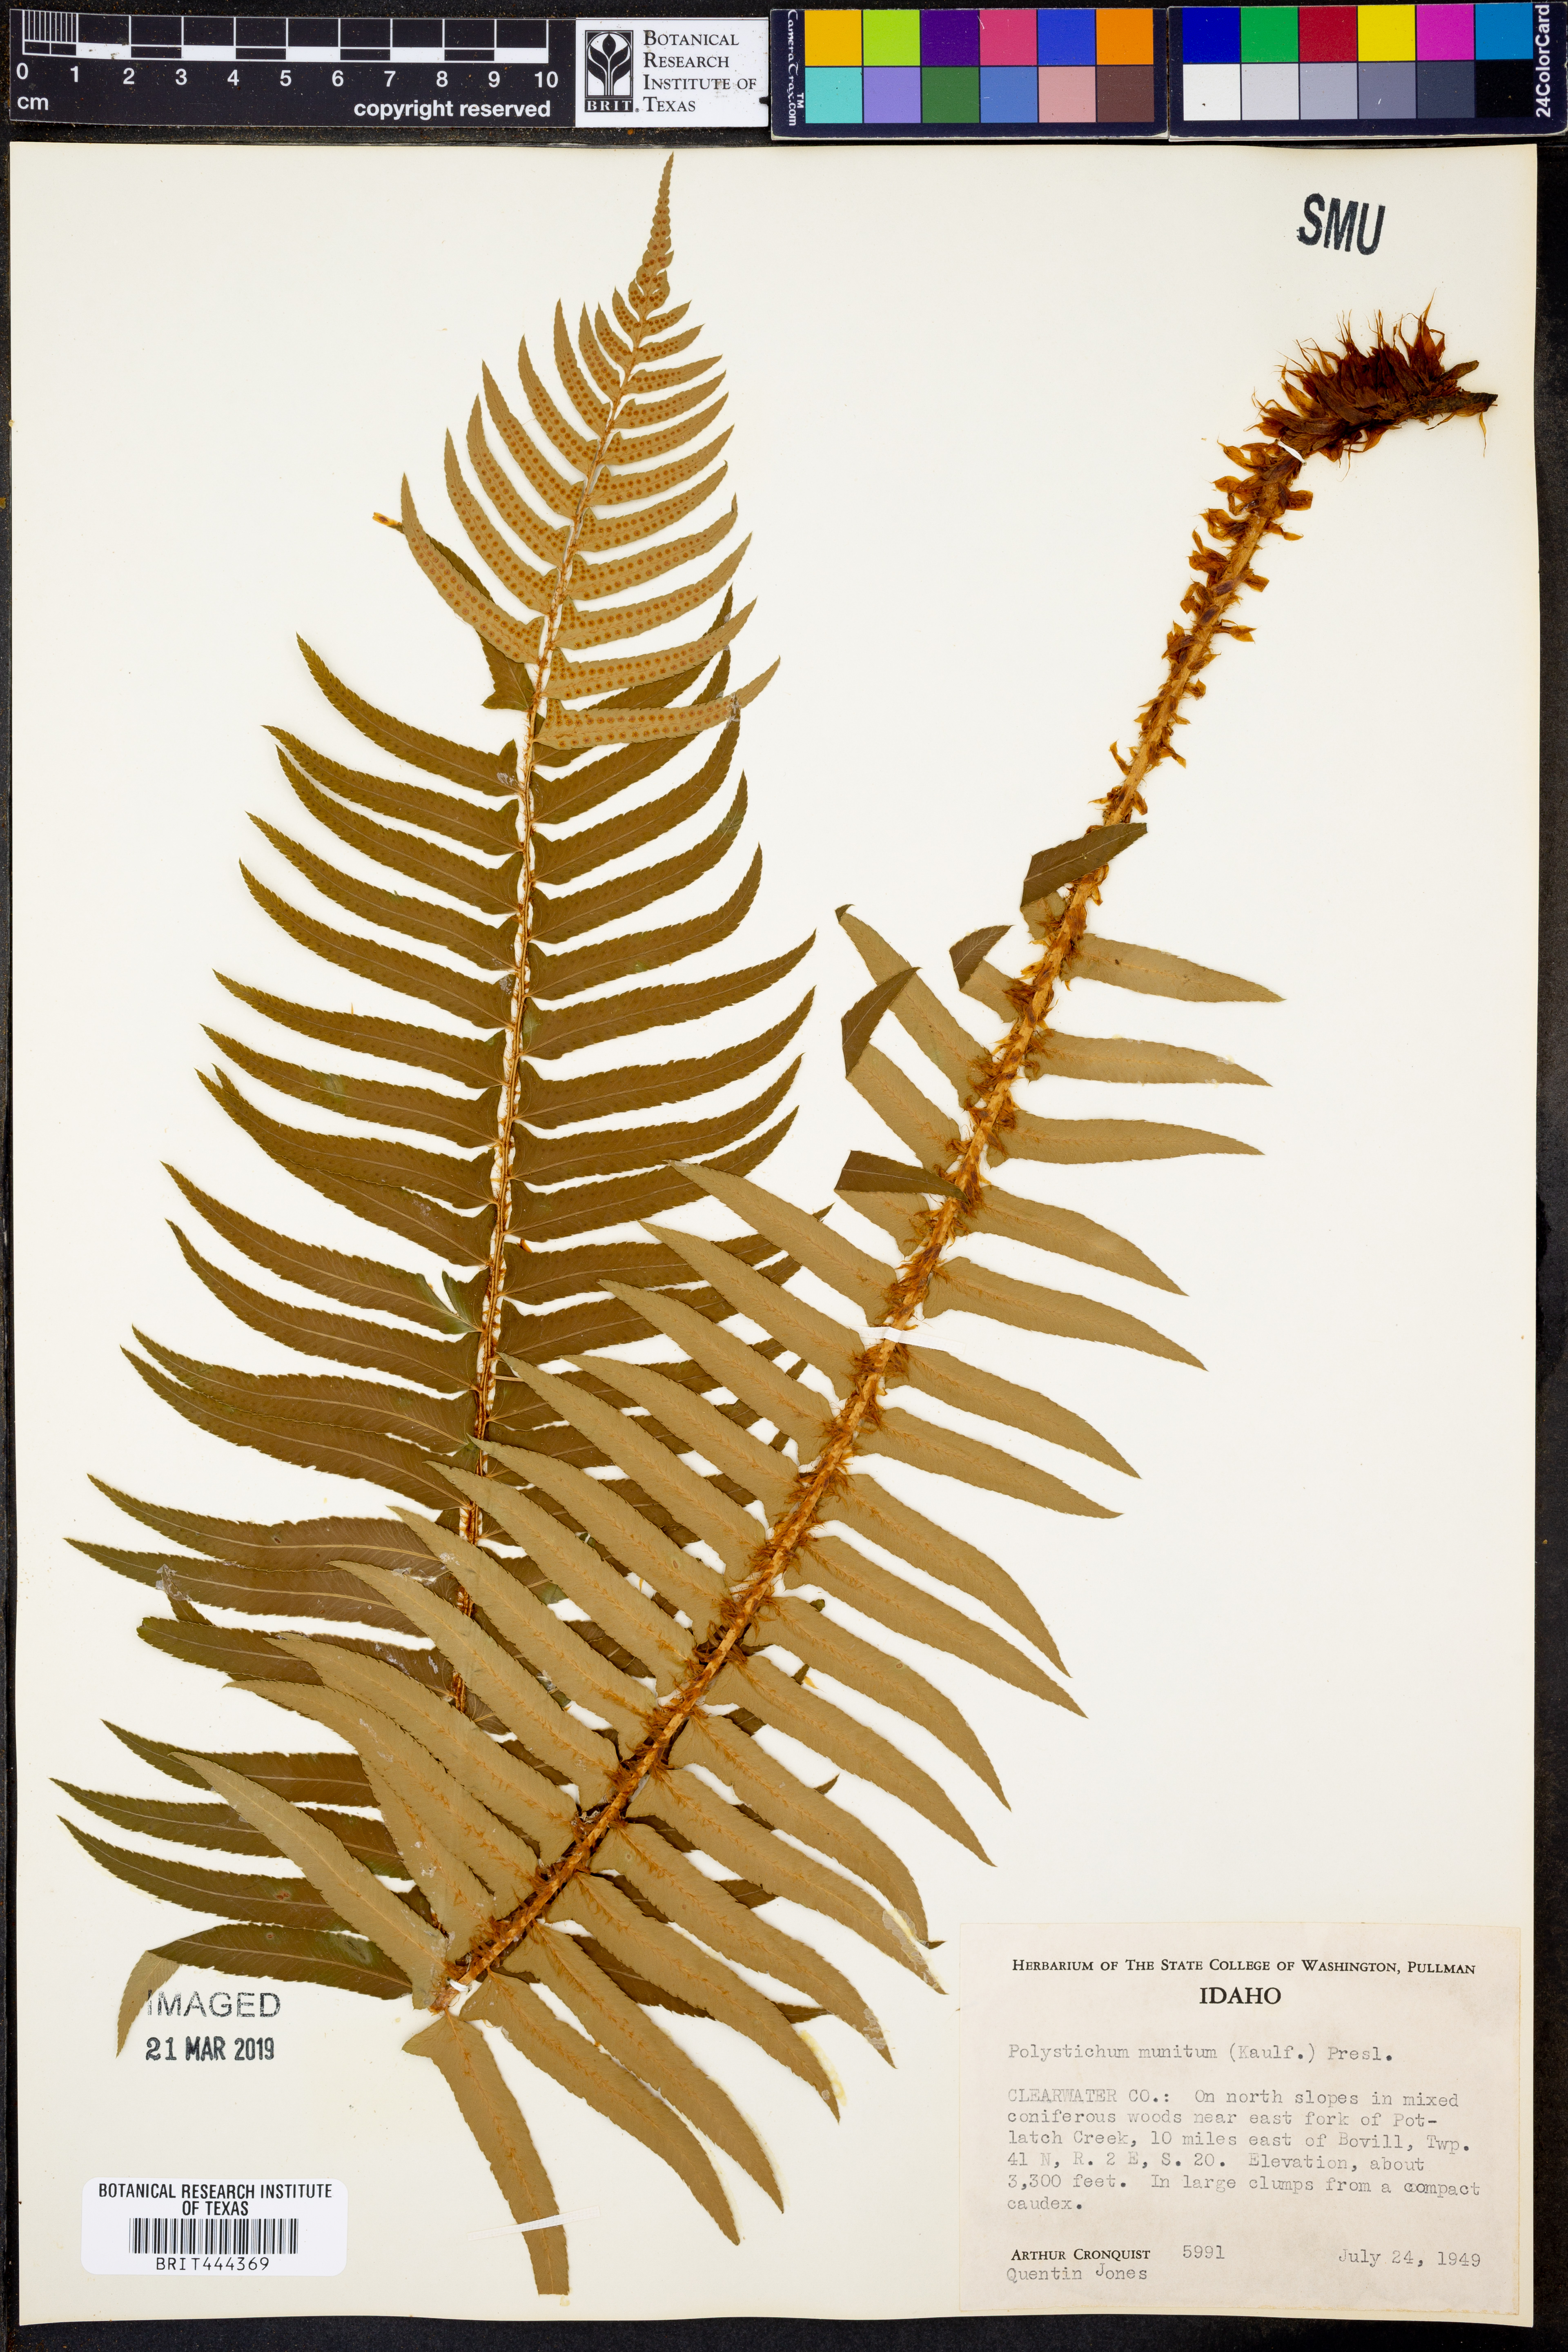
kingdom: Plantae
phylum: Tracheophyta
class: Polypodiopsida
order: Polypodiales
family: Dryopteridaceae
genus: Polystichum
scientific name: Polystichum munitum
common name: Western sword-fern
